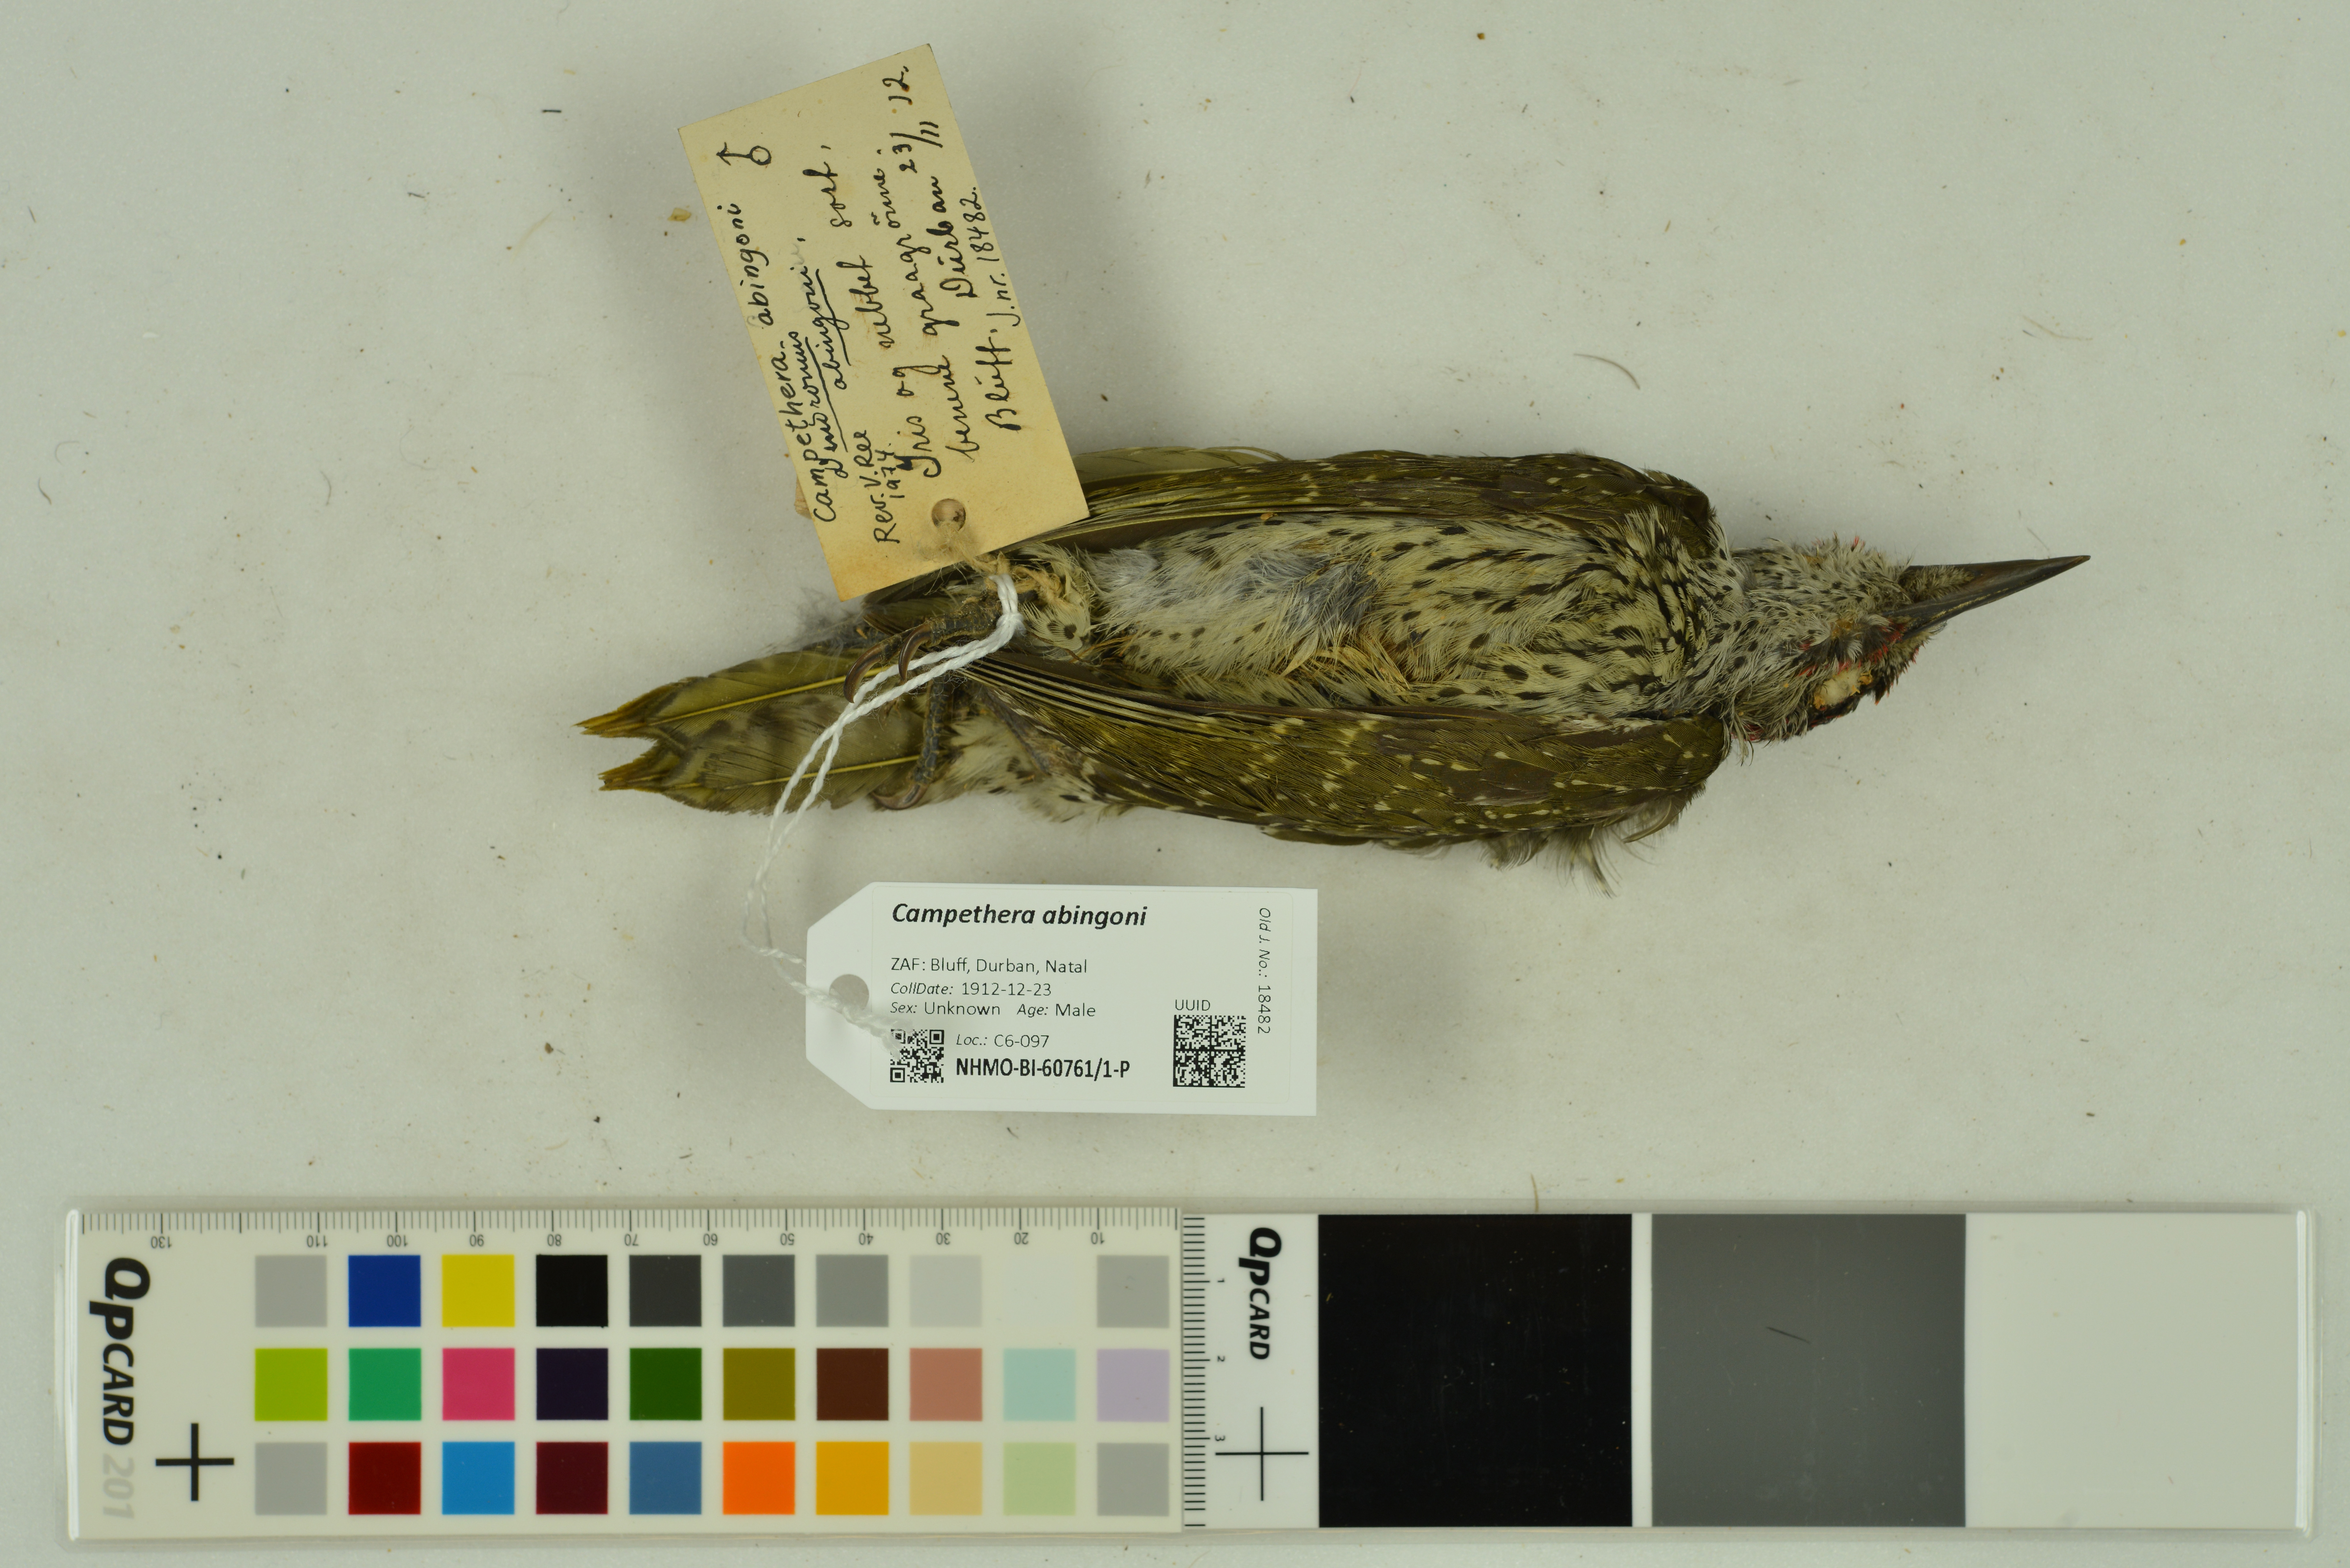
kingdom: Animalia
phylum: Chordata
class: Aves
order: Piciformes
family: Picidae
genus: Campethera
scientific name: Campethera abingoni
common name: Golden-tailed woodpecker
